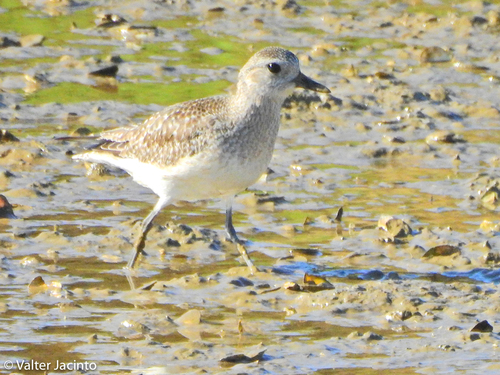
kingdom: Animalia
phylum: Chordata
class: Aves
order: Charadriiformes
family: Charadriidae
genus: Pluvialis
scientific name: Pluvialis squatarola
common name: Grey plover
